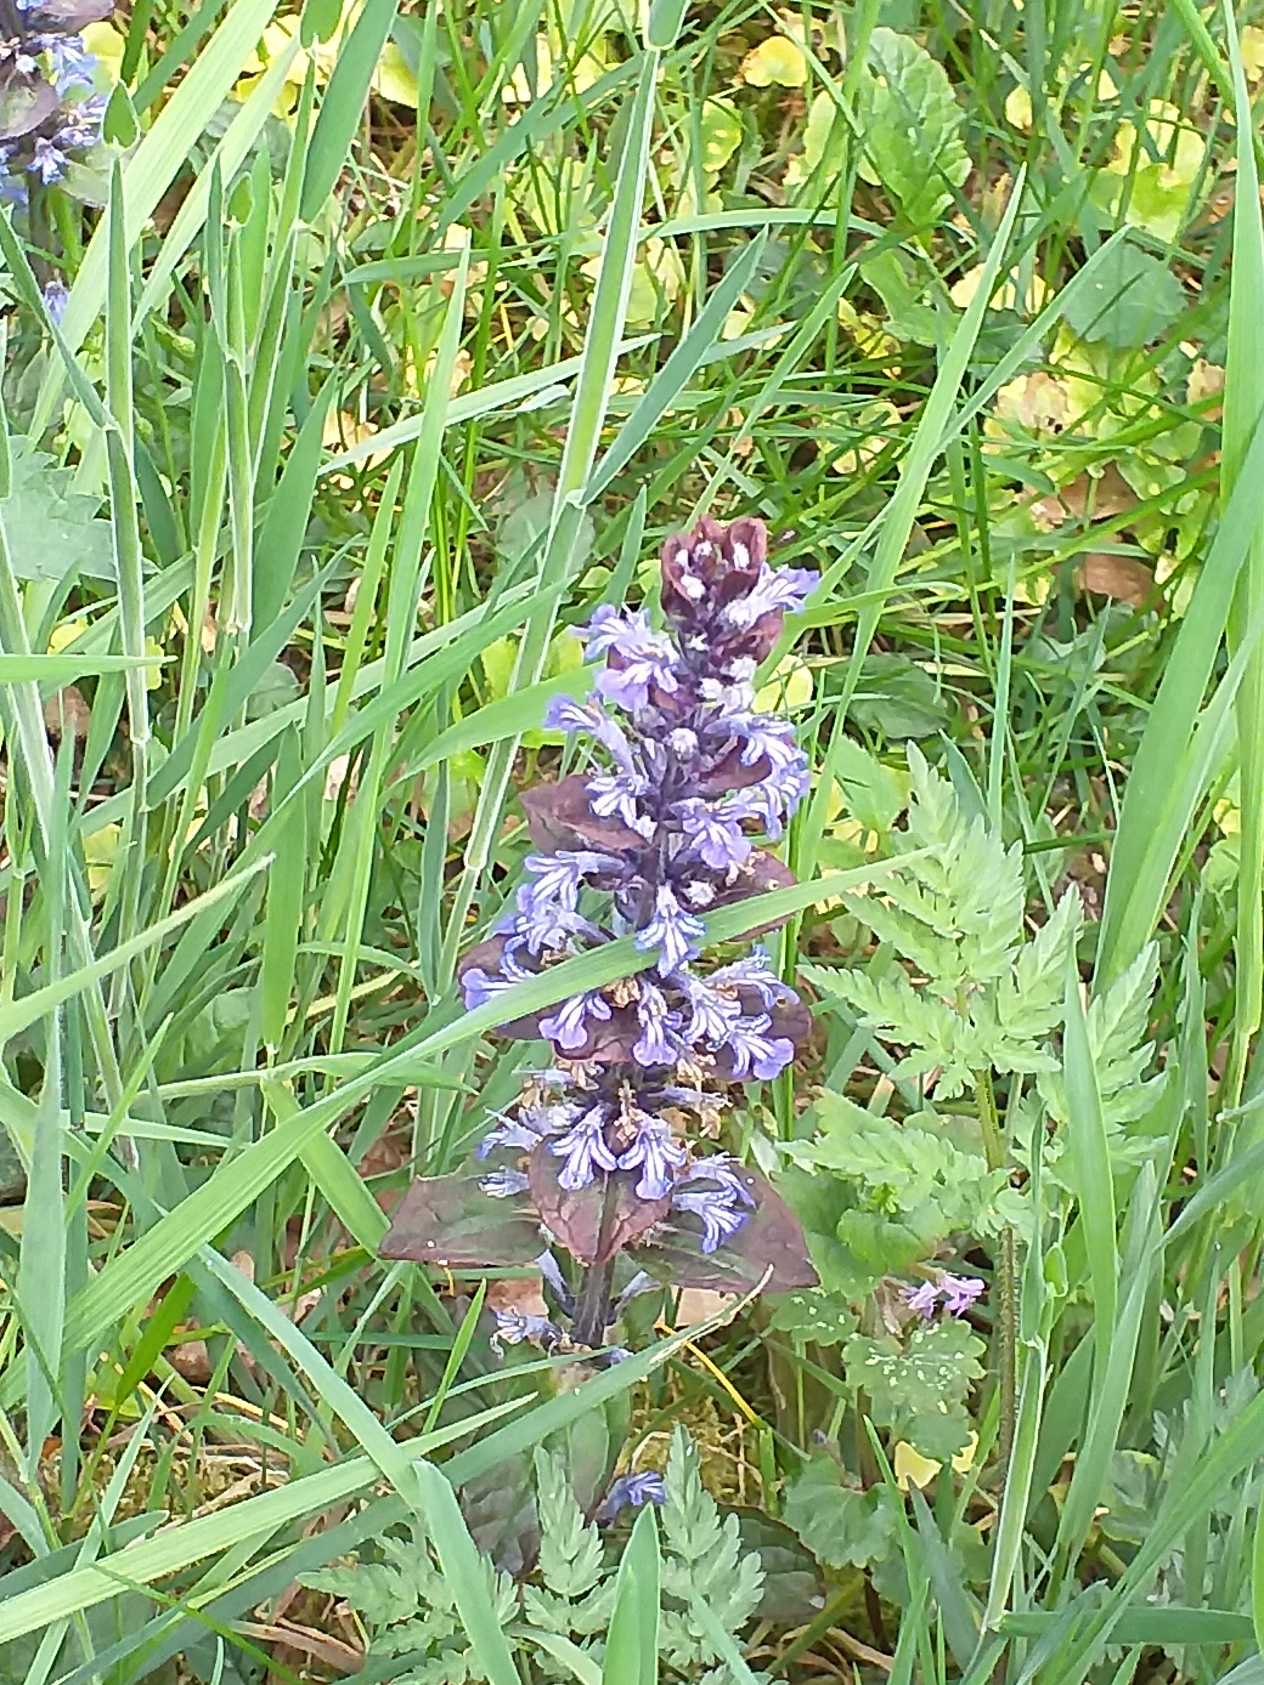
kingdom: Plantae
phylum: Tracheophyta
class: Magnoliopsida
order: Lamiales
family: Lamiaceae
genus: Ajuga
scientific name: Ajuga reptans
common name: Krybende læbeløs
